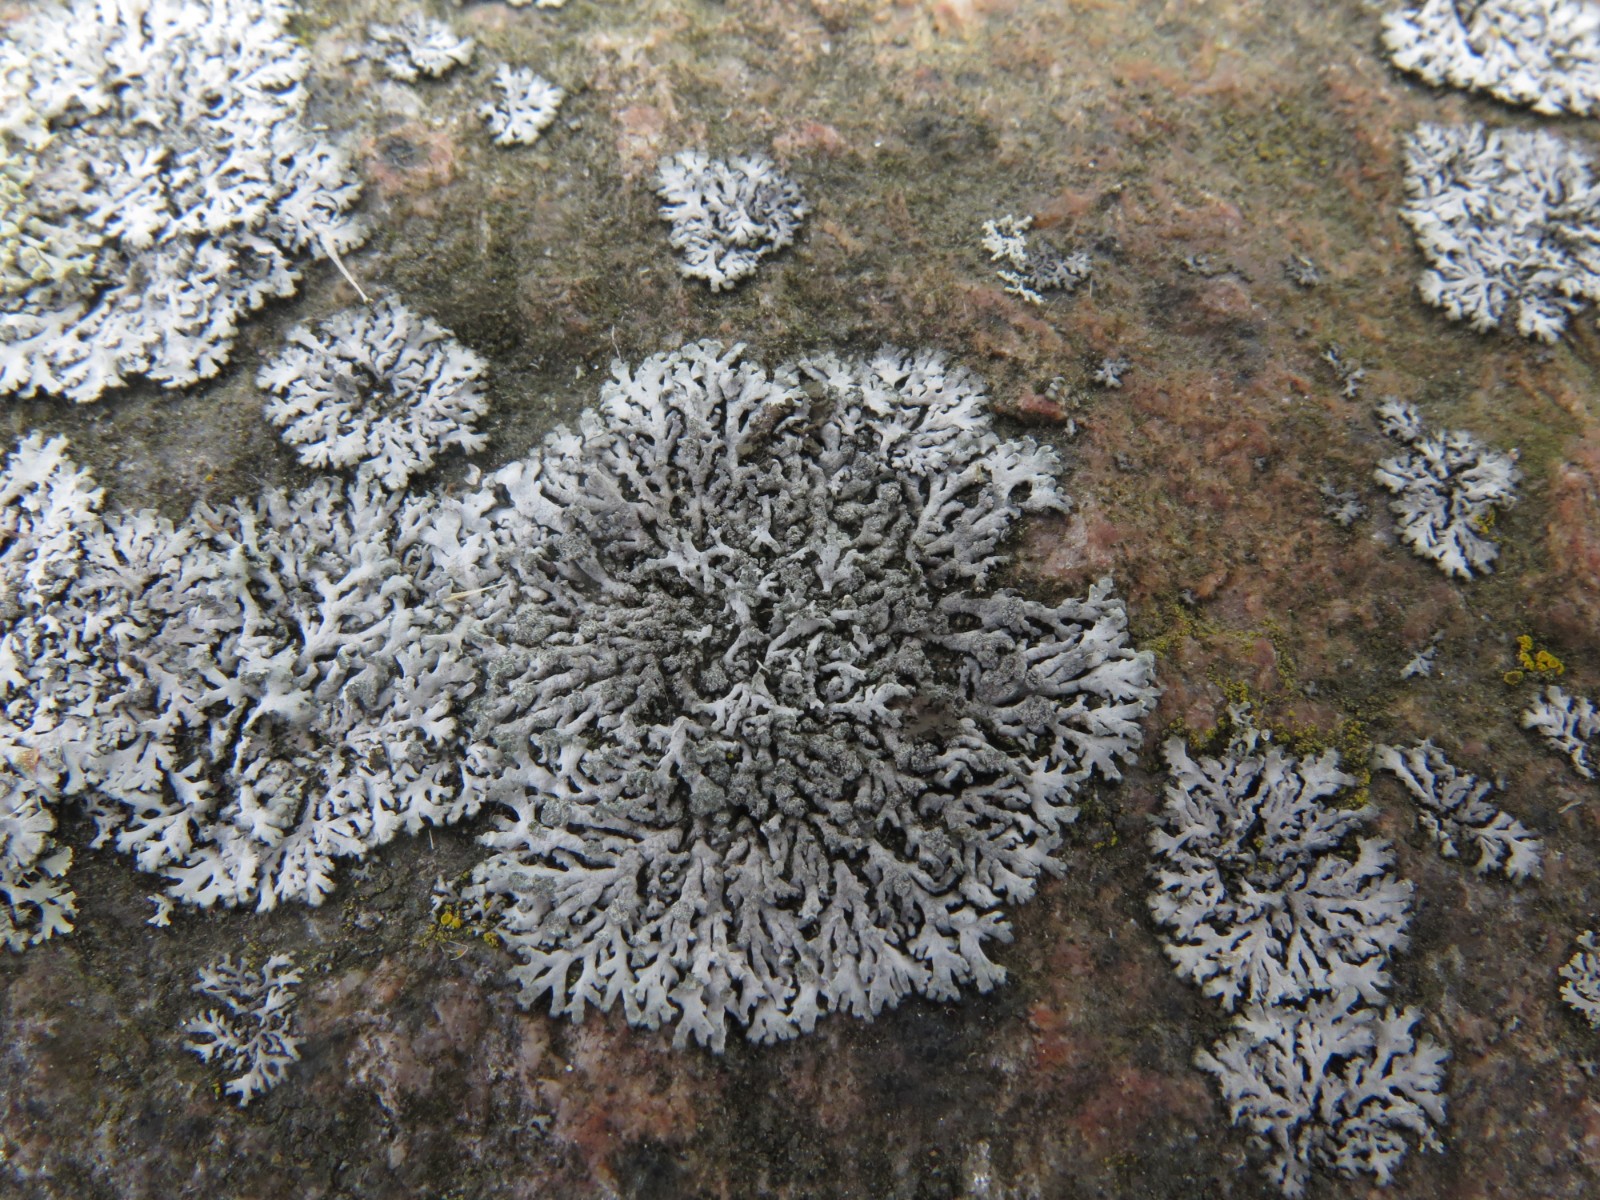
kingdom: Fungi
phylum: Ascomycota
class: Lecanoromycetes
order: Caliciales
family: Physciaceae
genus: Physcia
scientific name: Physcia caesia
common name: blågrå rosetlav
